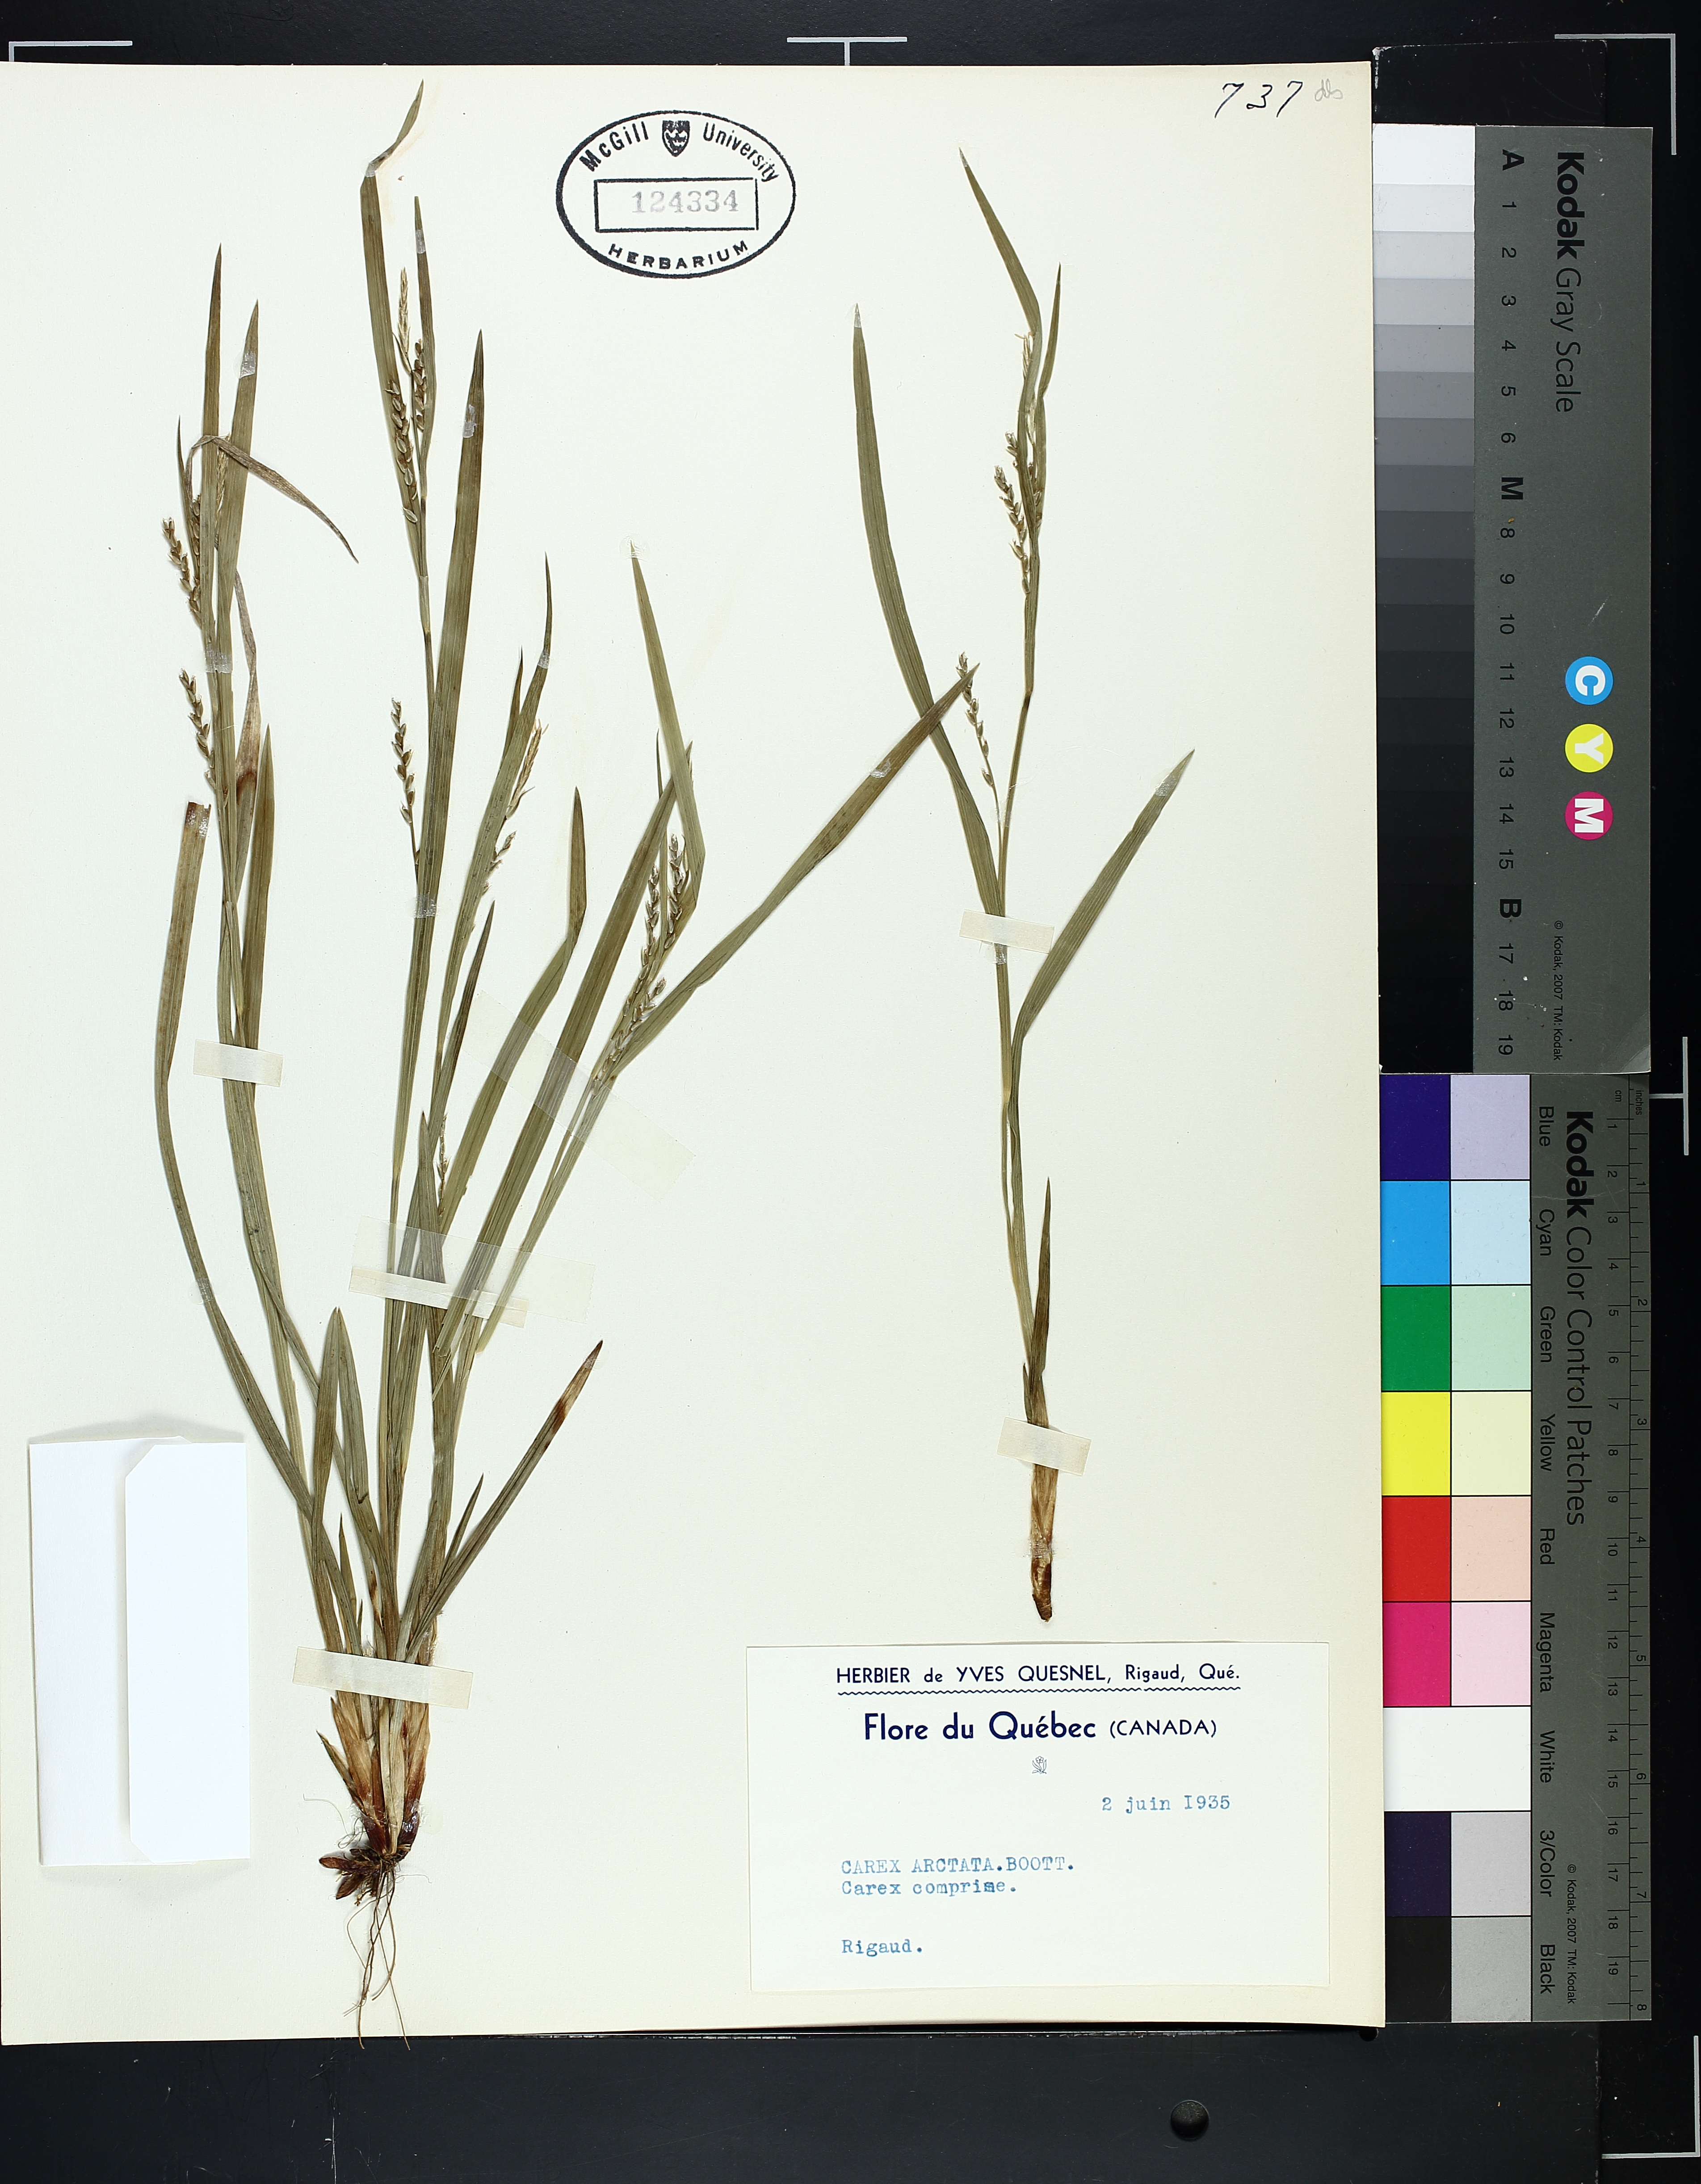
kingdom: Plantae
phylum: Tracheophyta
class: Liliopsida
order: Poales
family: Cyperaceae
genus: Carex
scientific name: Carex arctata
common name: Black sedge
